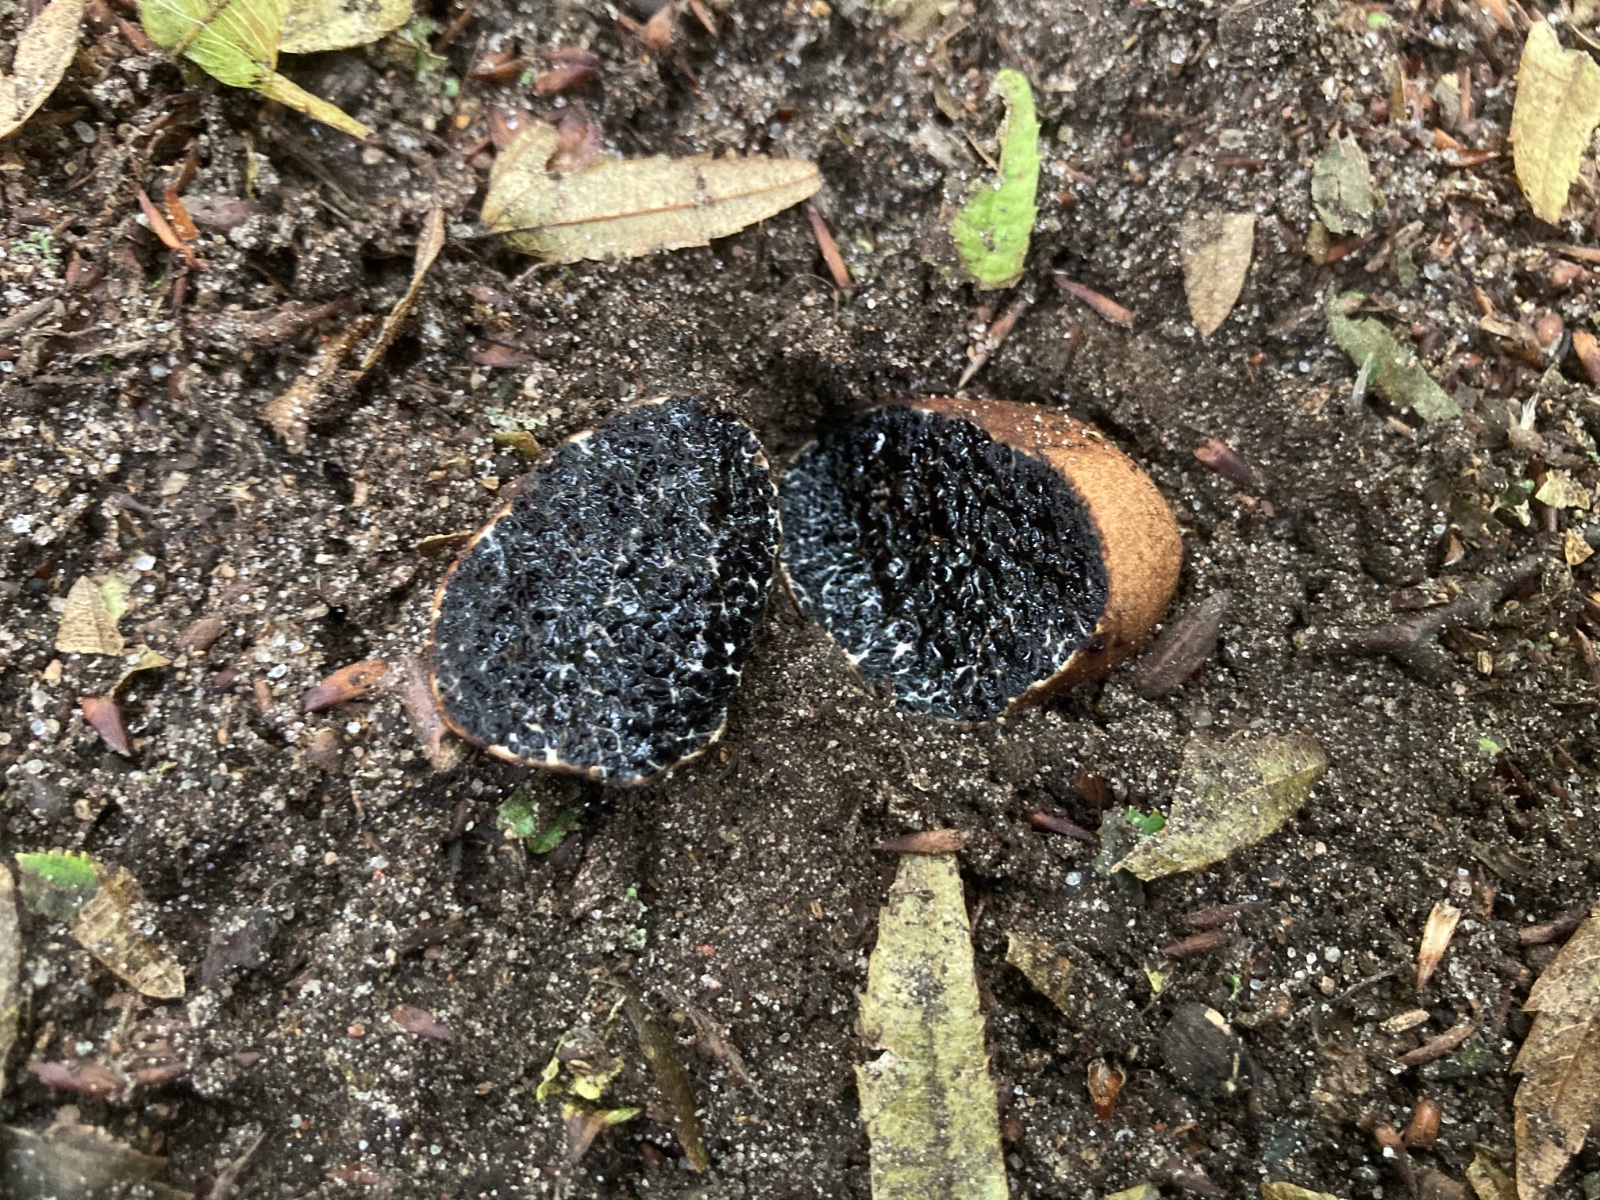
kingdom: Fungi
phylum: Basidiomycota
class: Agaricomycetes
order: Boletales
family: Paxillaceae
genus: Melanogaster
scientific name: Melanogaster broomeanus
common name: broget slimtrøffel
